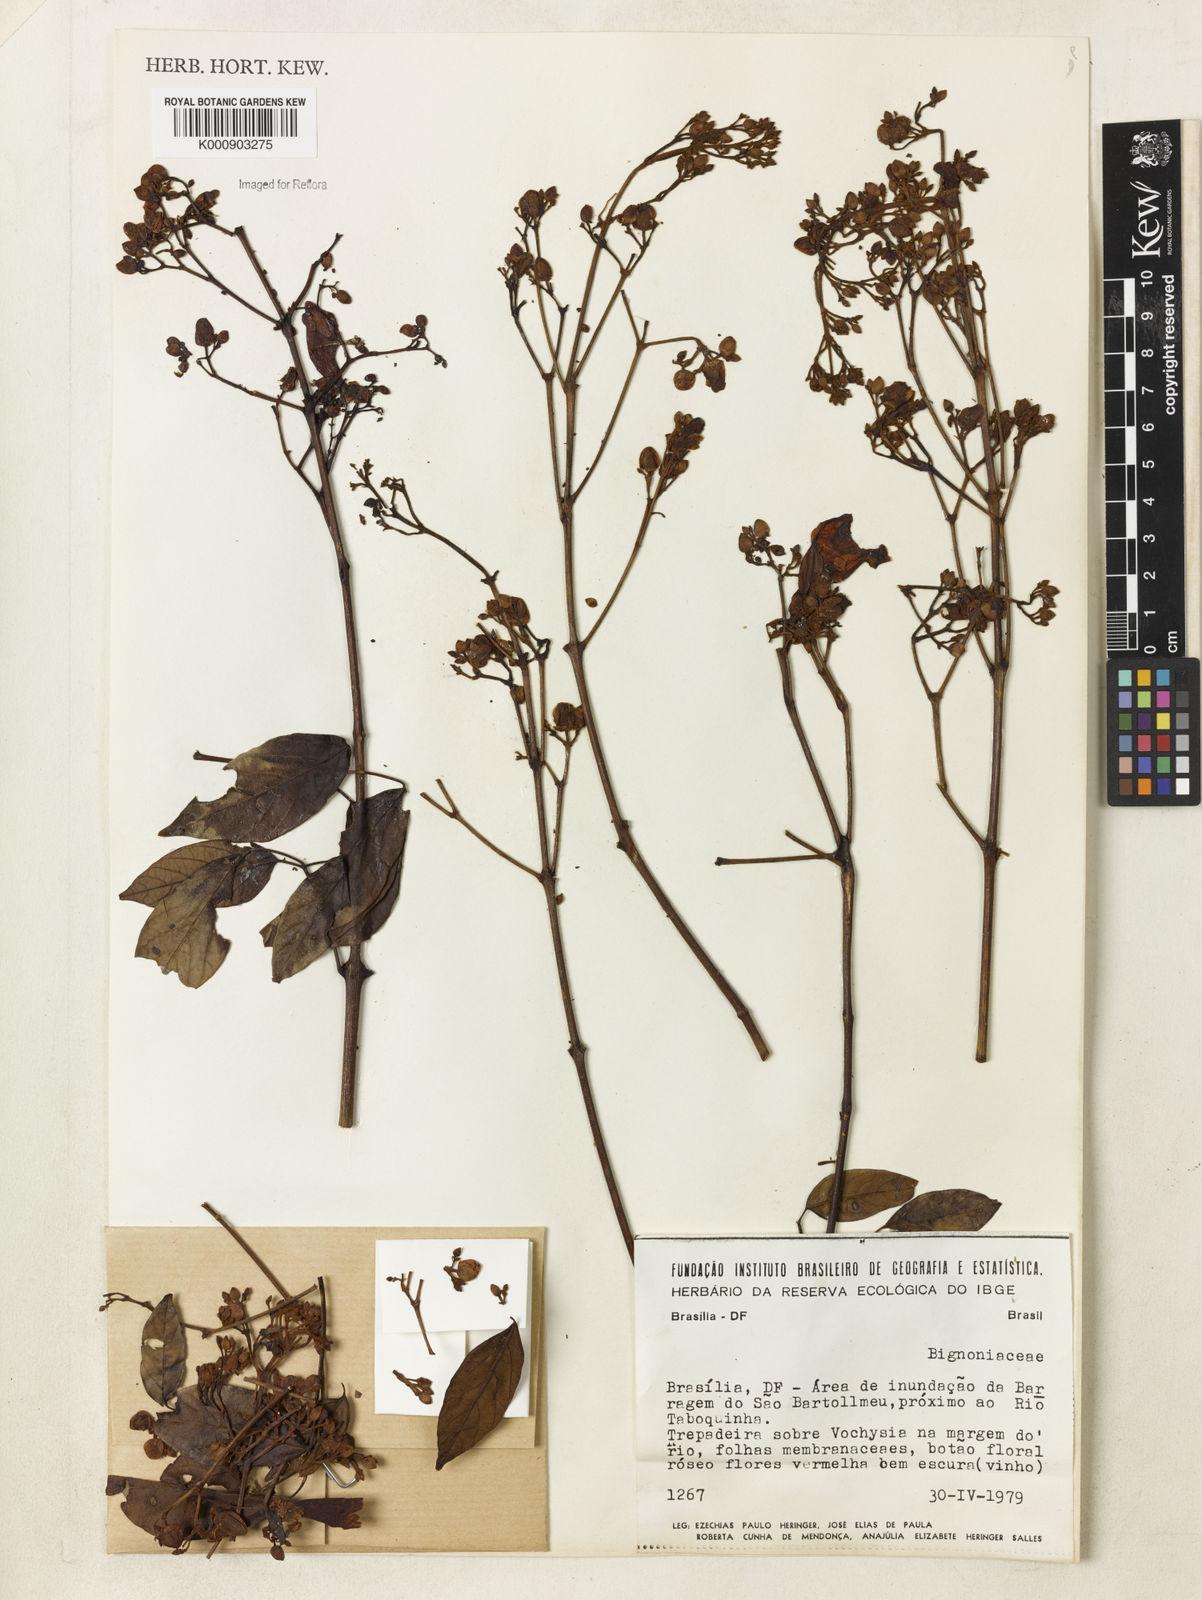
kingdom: Plantae
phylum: Tracheophyta
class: Magnoliopsida
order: Lamiales
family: Bignoniaceae
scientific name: Bignoniaceae
